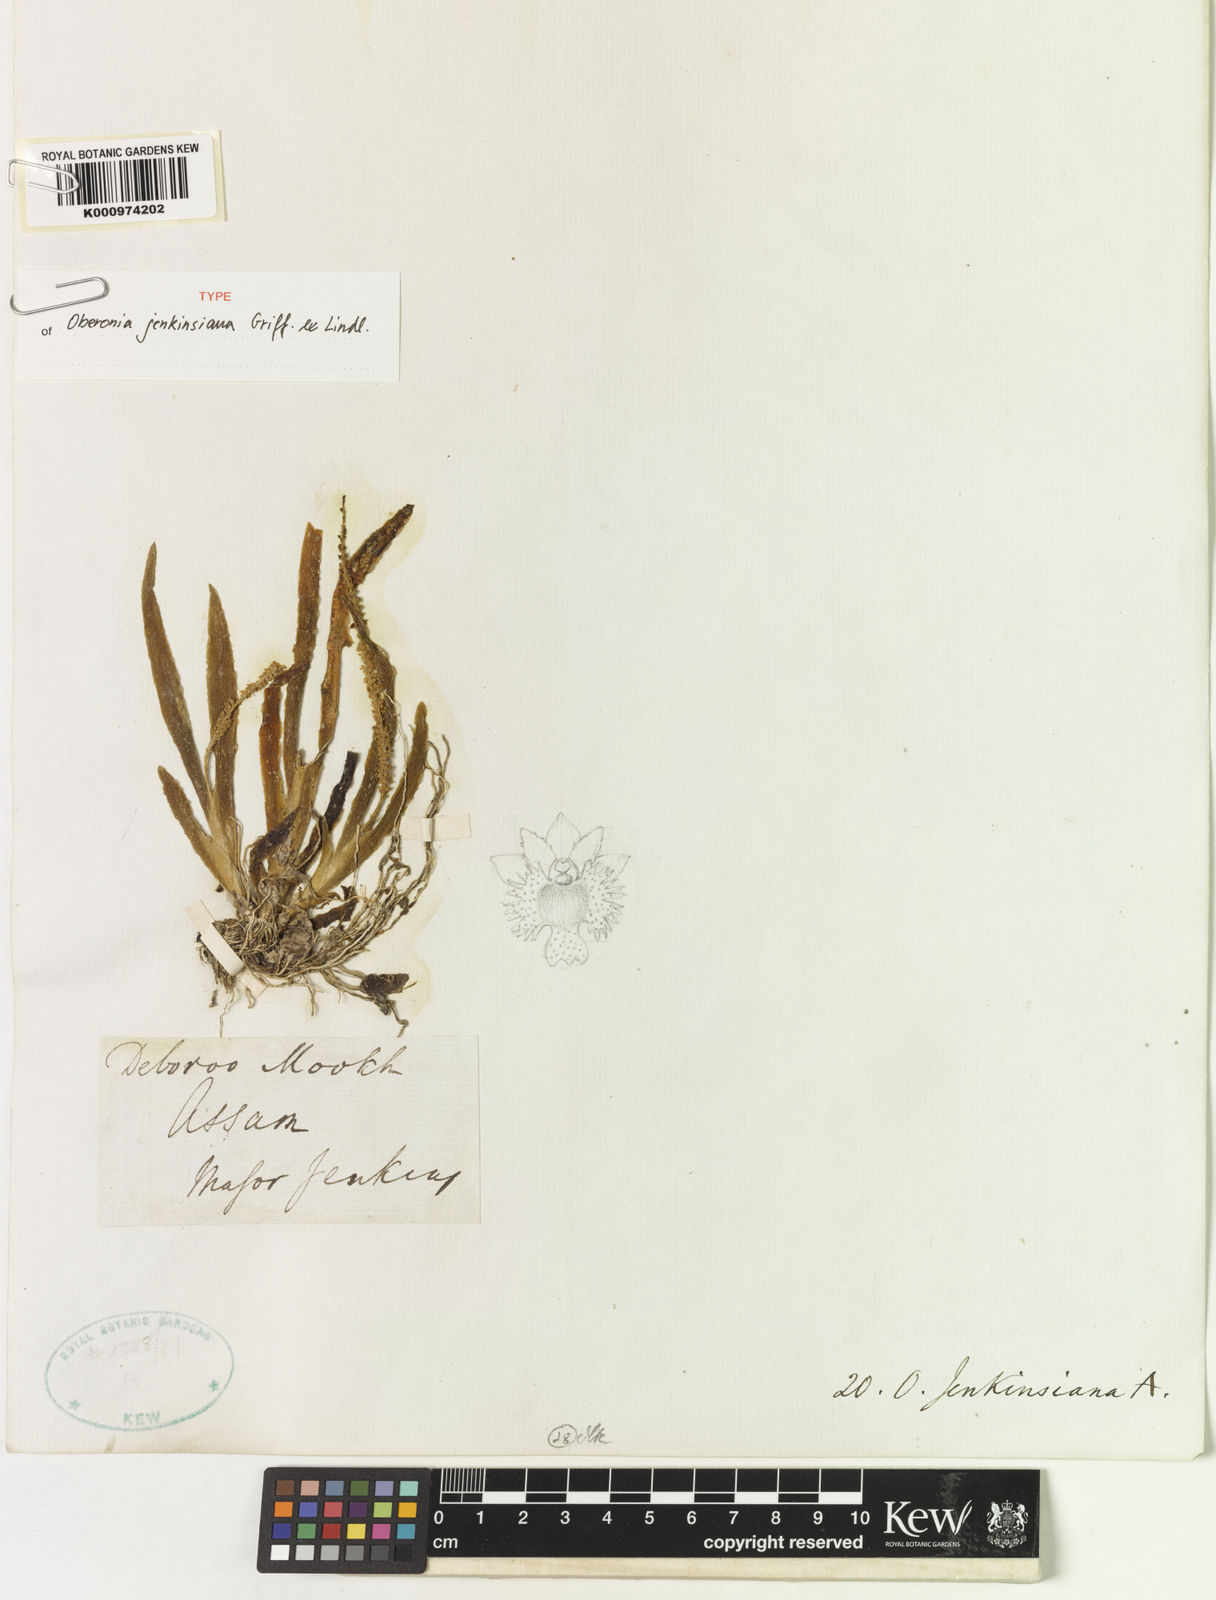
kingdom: Plantae
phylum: Tracheophyta
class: Liliopsida
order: Asparagales
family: Orchidaceae
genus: Oberonia
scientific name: Oberonia jenkinsiana
